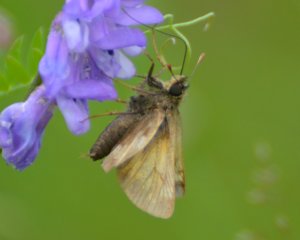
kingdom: Animalia
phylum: Arthropoda
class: Insecta
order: Lepidoptera
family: Hesperiidae
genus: Lon
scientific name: Lon hobomok
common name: Hobomok Skipper
